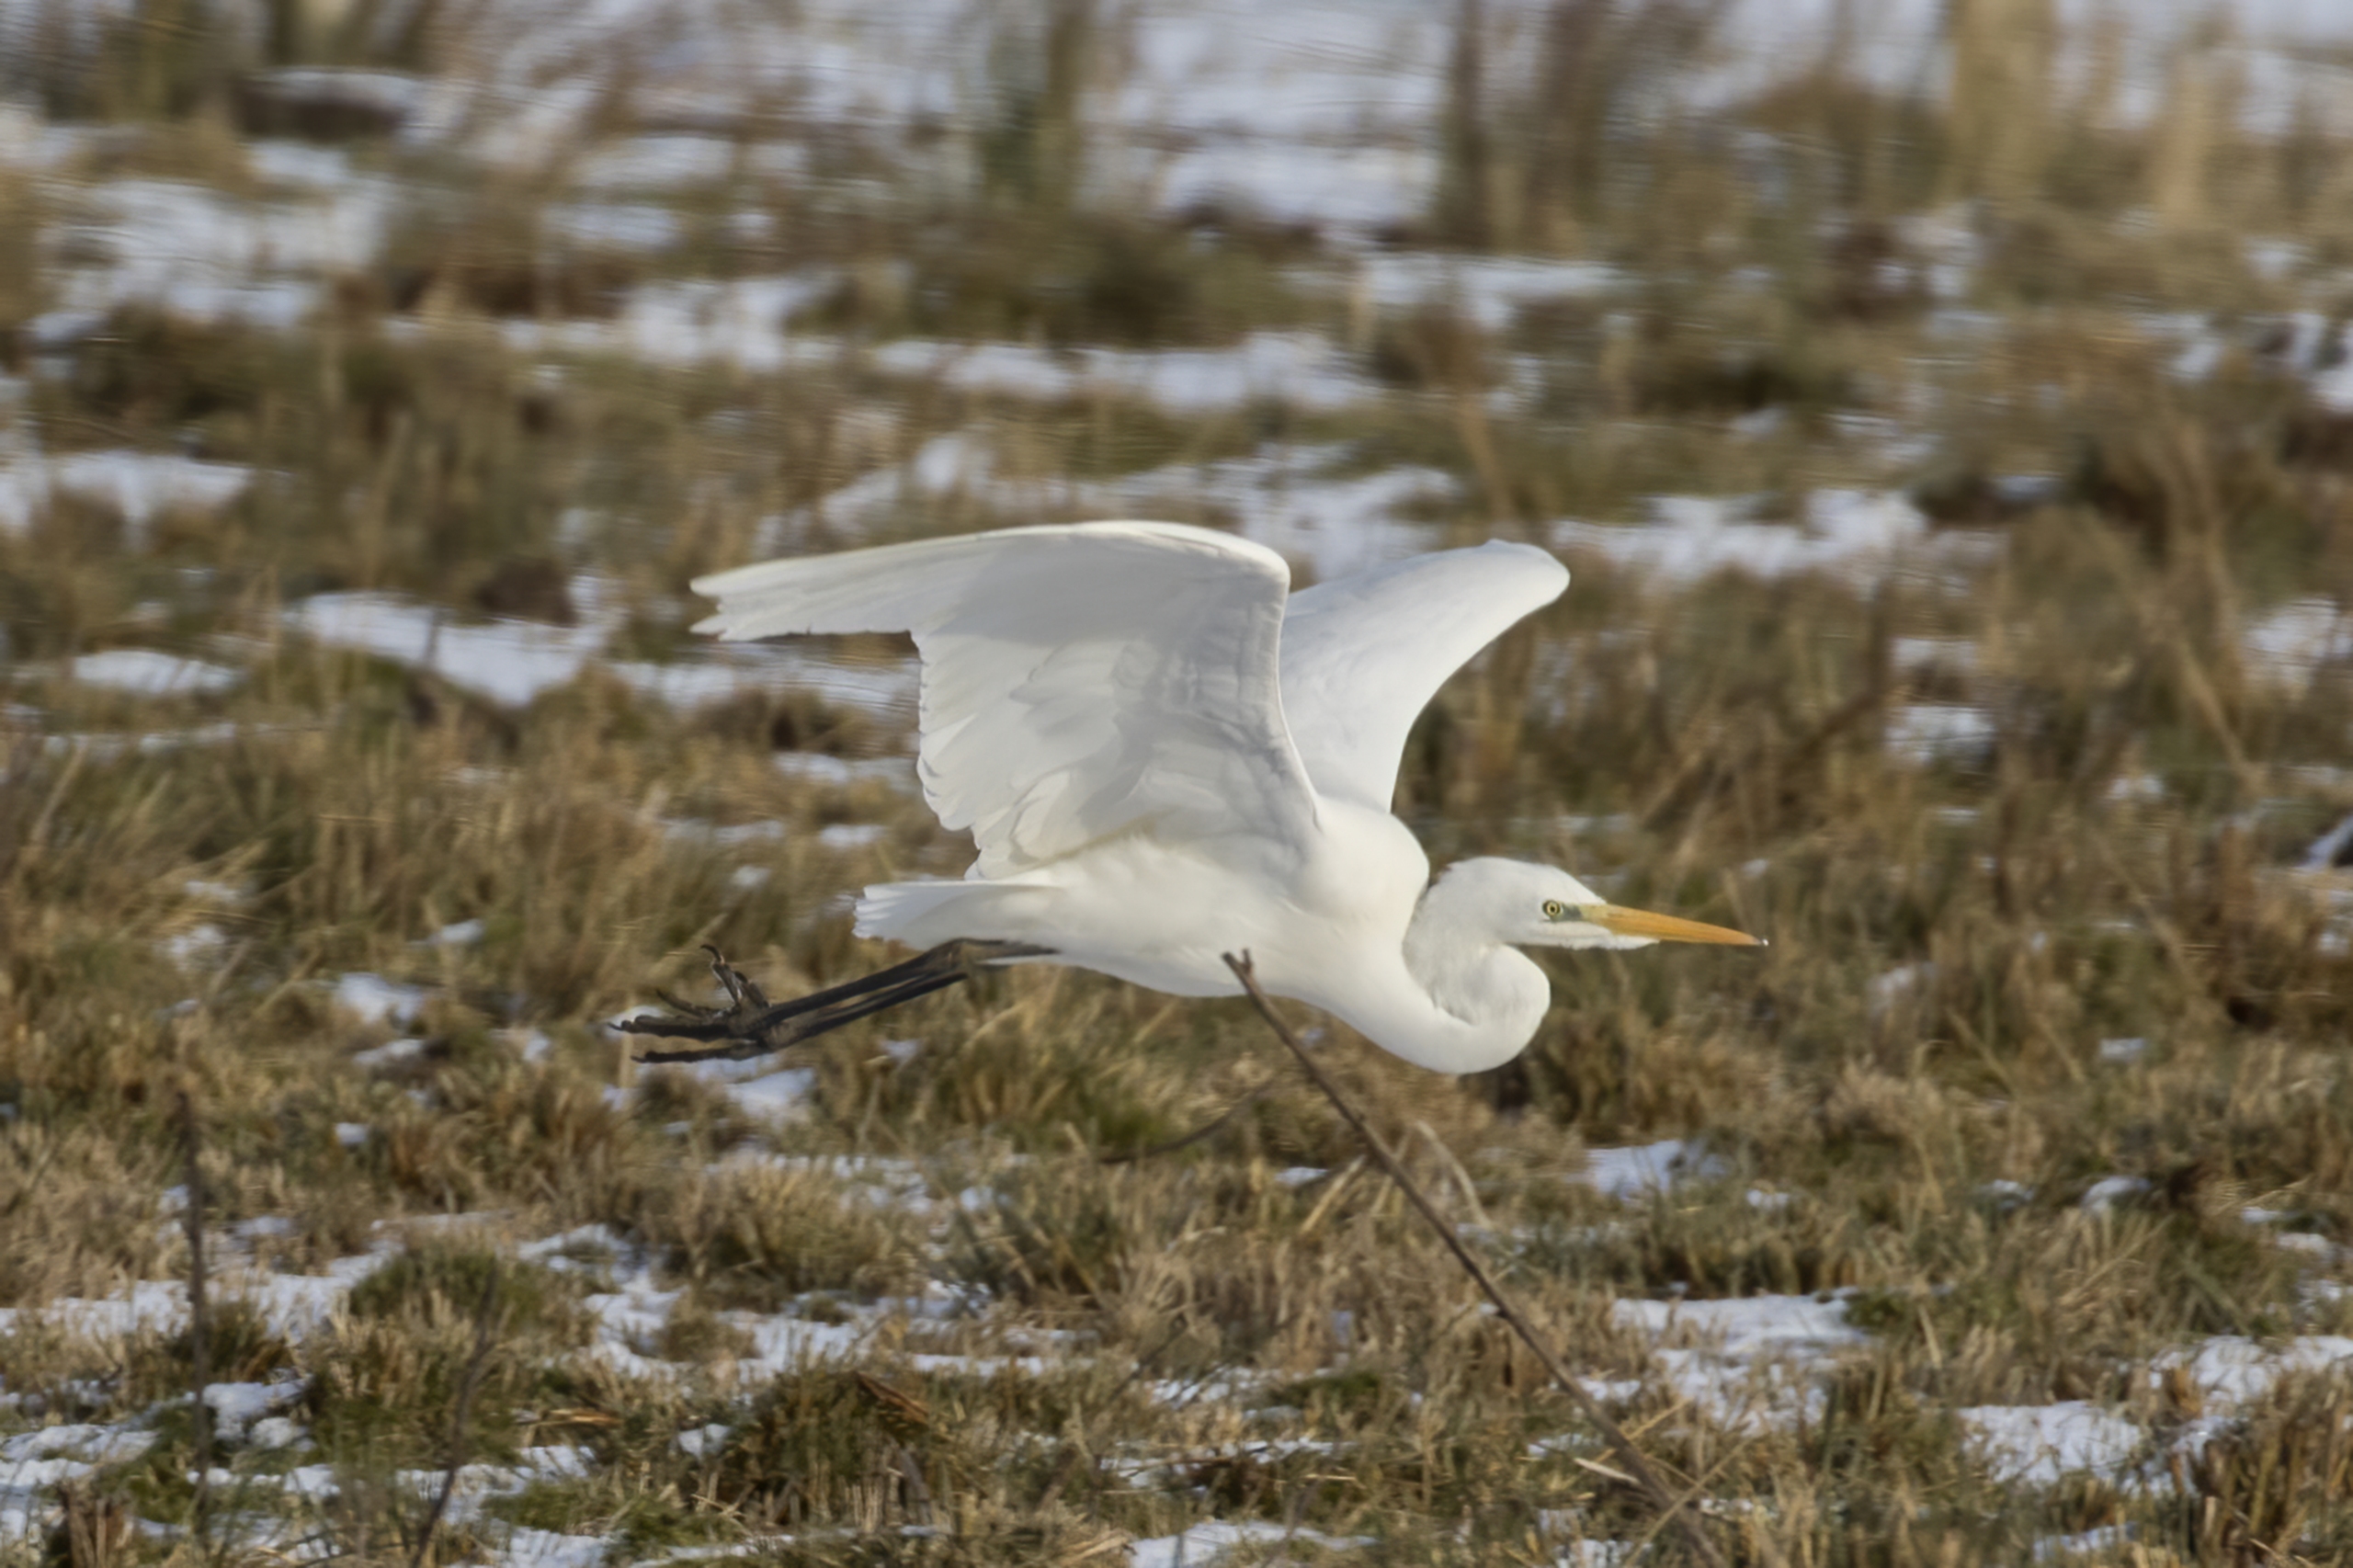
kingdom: Animalia
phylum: Chordata
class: Aves
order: Pelecaniformes
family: Ardeidae
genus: Ardea
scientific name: Ardea alba
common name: Sølvhejre
